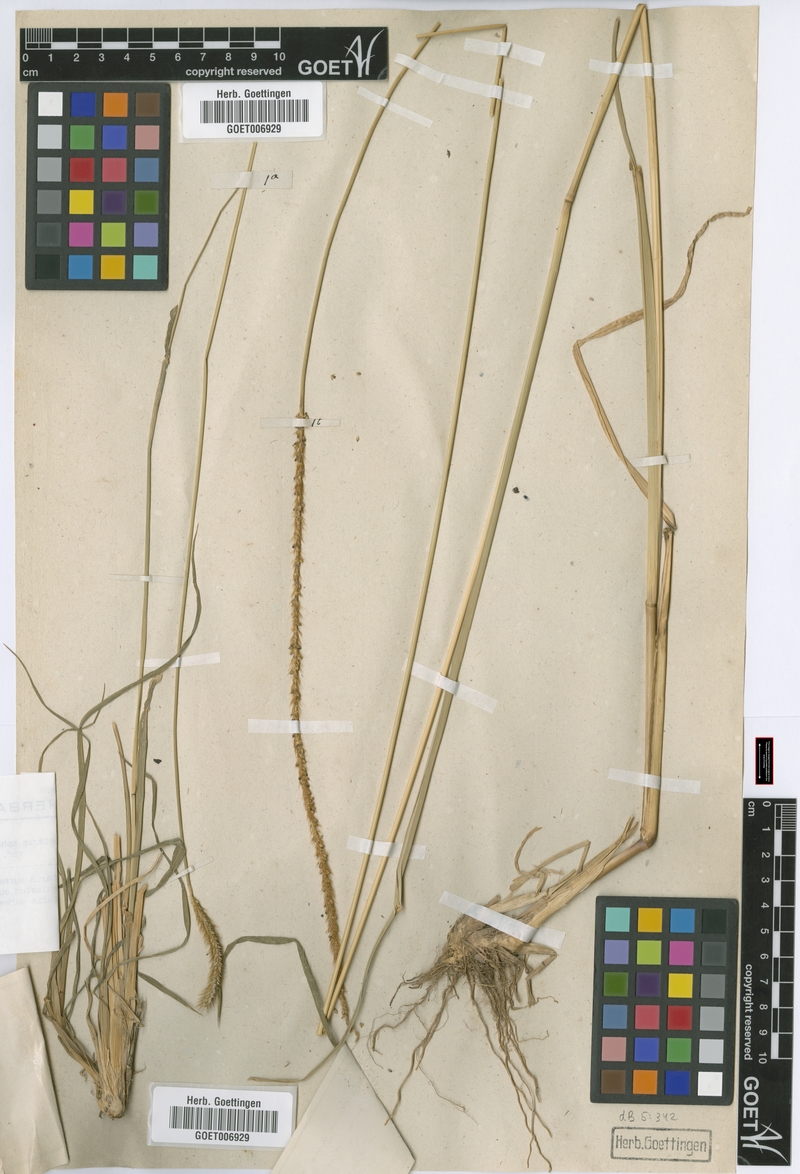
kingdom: Plantae
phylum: Tracheophyta
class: Liliopsida
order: Poales
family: Poaceae
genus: Setaria
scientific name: Setaria sphacelata
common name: African bristlegrass
